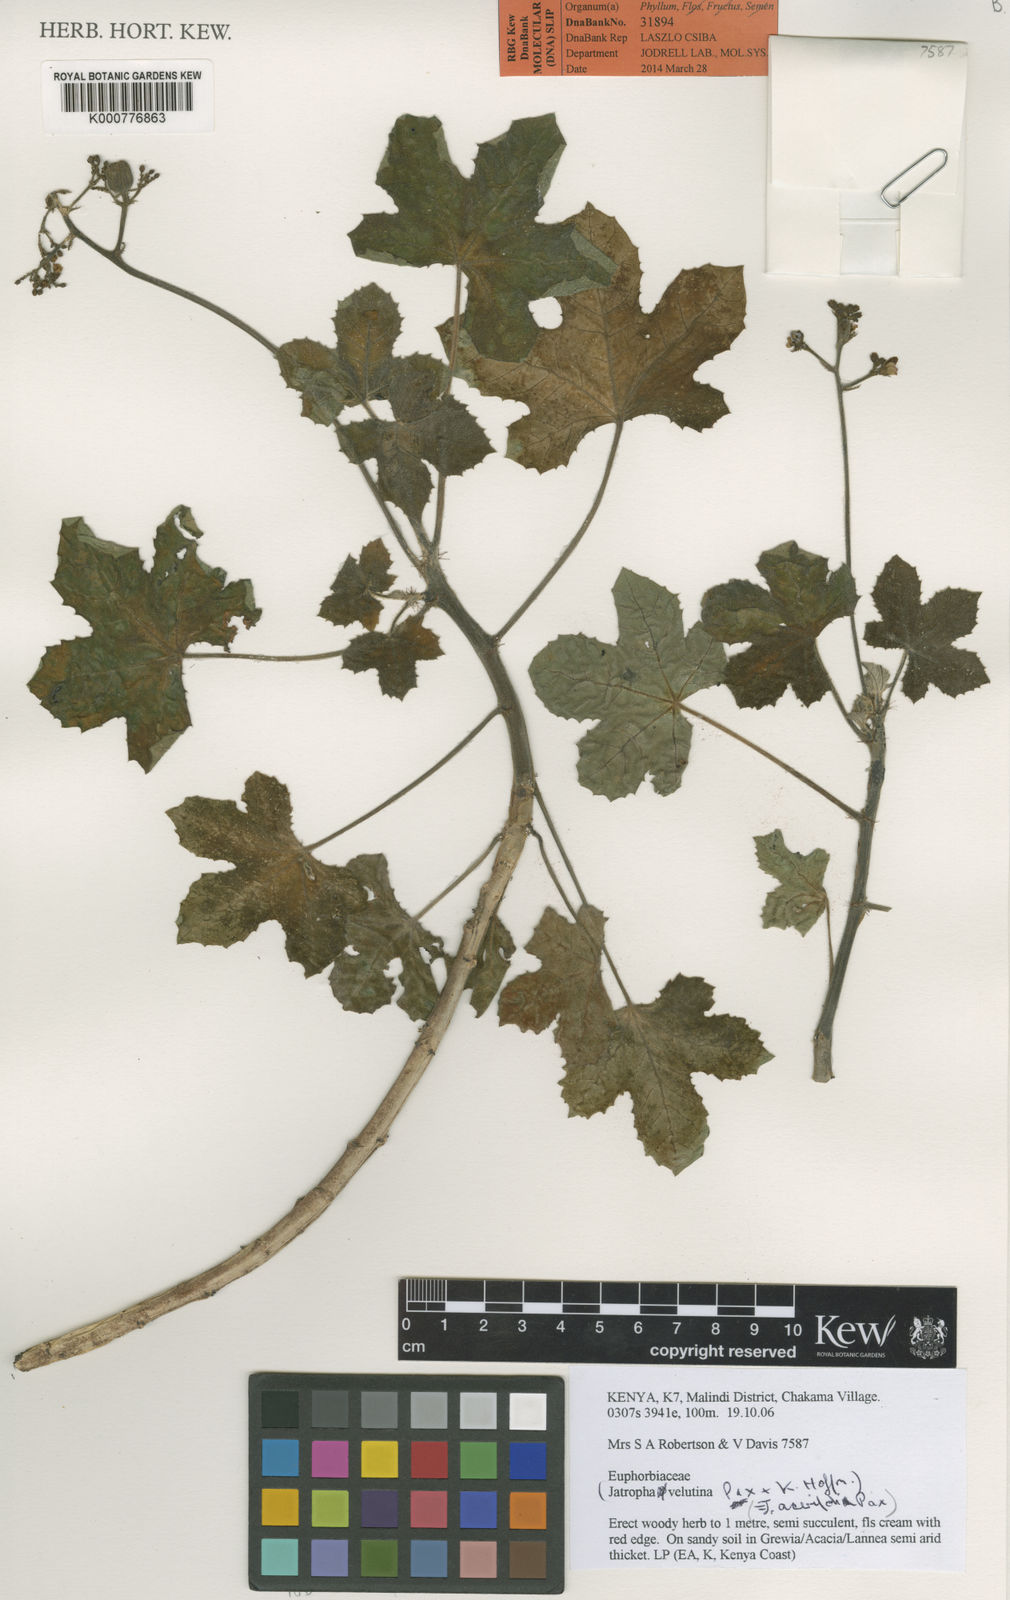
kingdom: Plantae
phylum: Tracheophyta
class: Magnoliopsida
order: Malpighiales
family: Euphorbiaceae
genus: Jatropha
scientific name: Jatropha velutina
